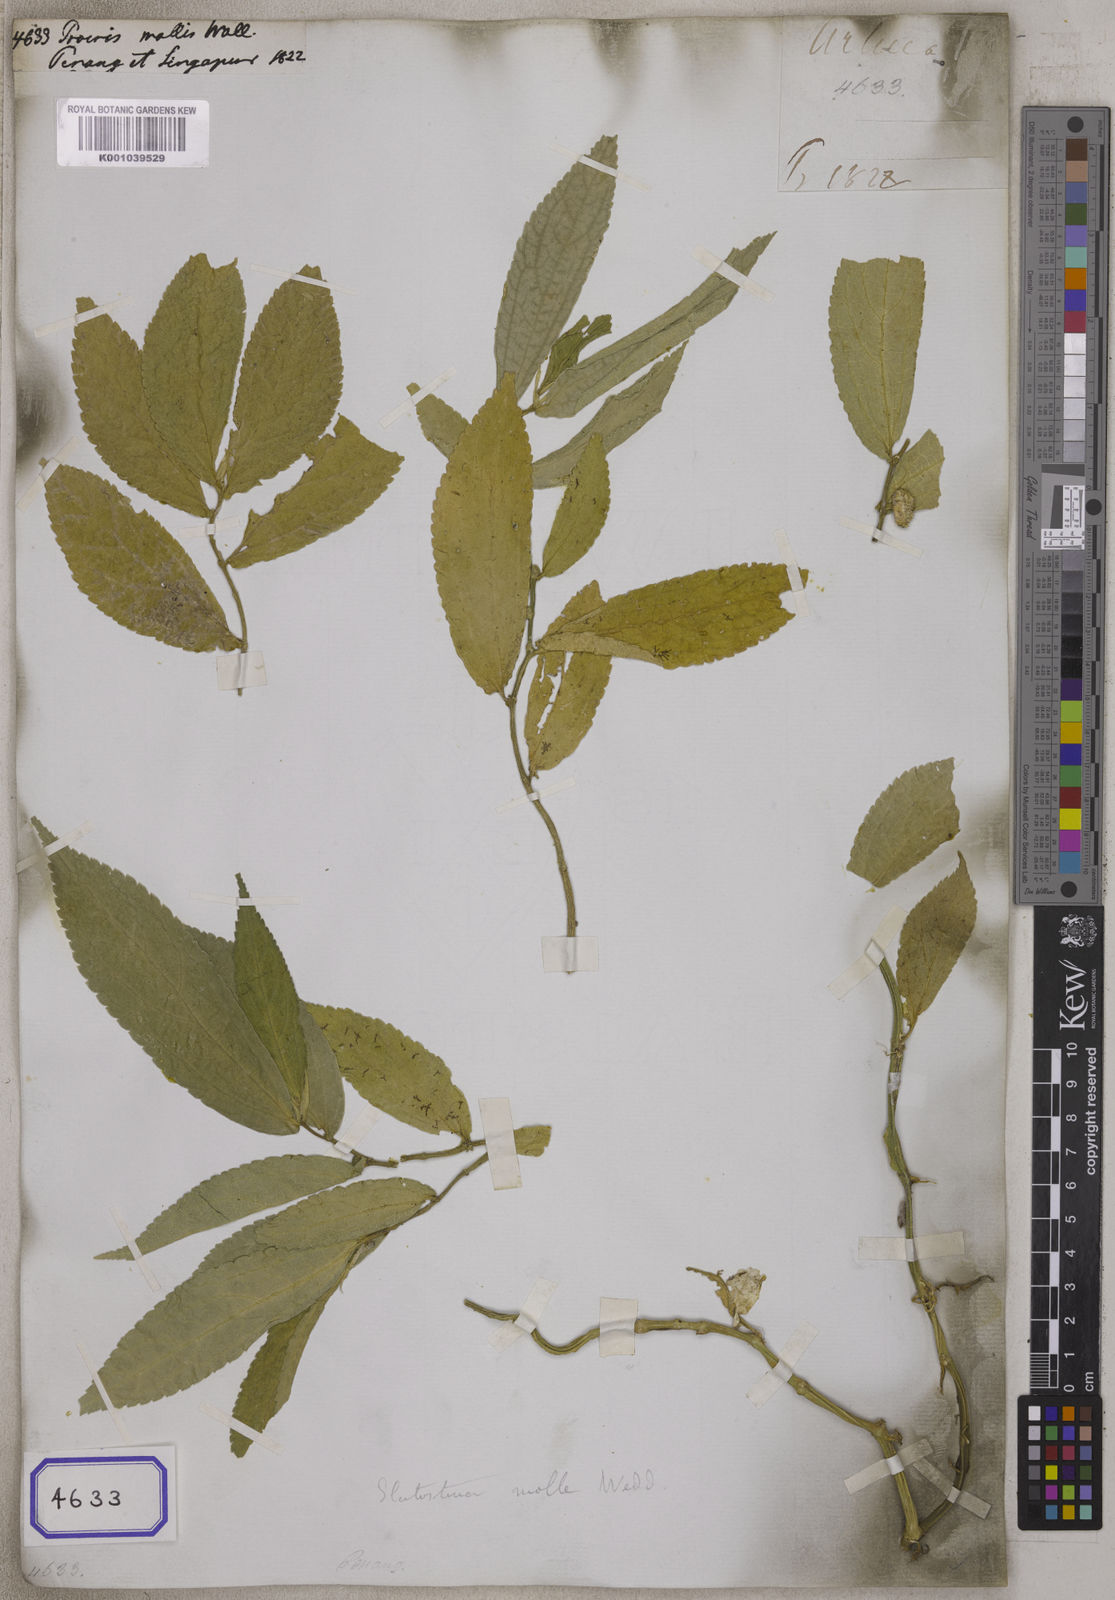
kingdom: Plantae
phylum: Tracheophyta
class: Magnoliopsida
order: Rosales
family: Urticaceae
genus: Elatostema
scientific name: Elatostema molle
